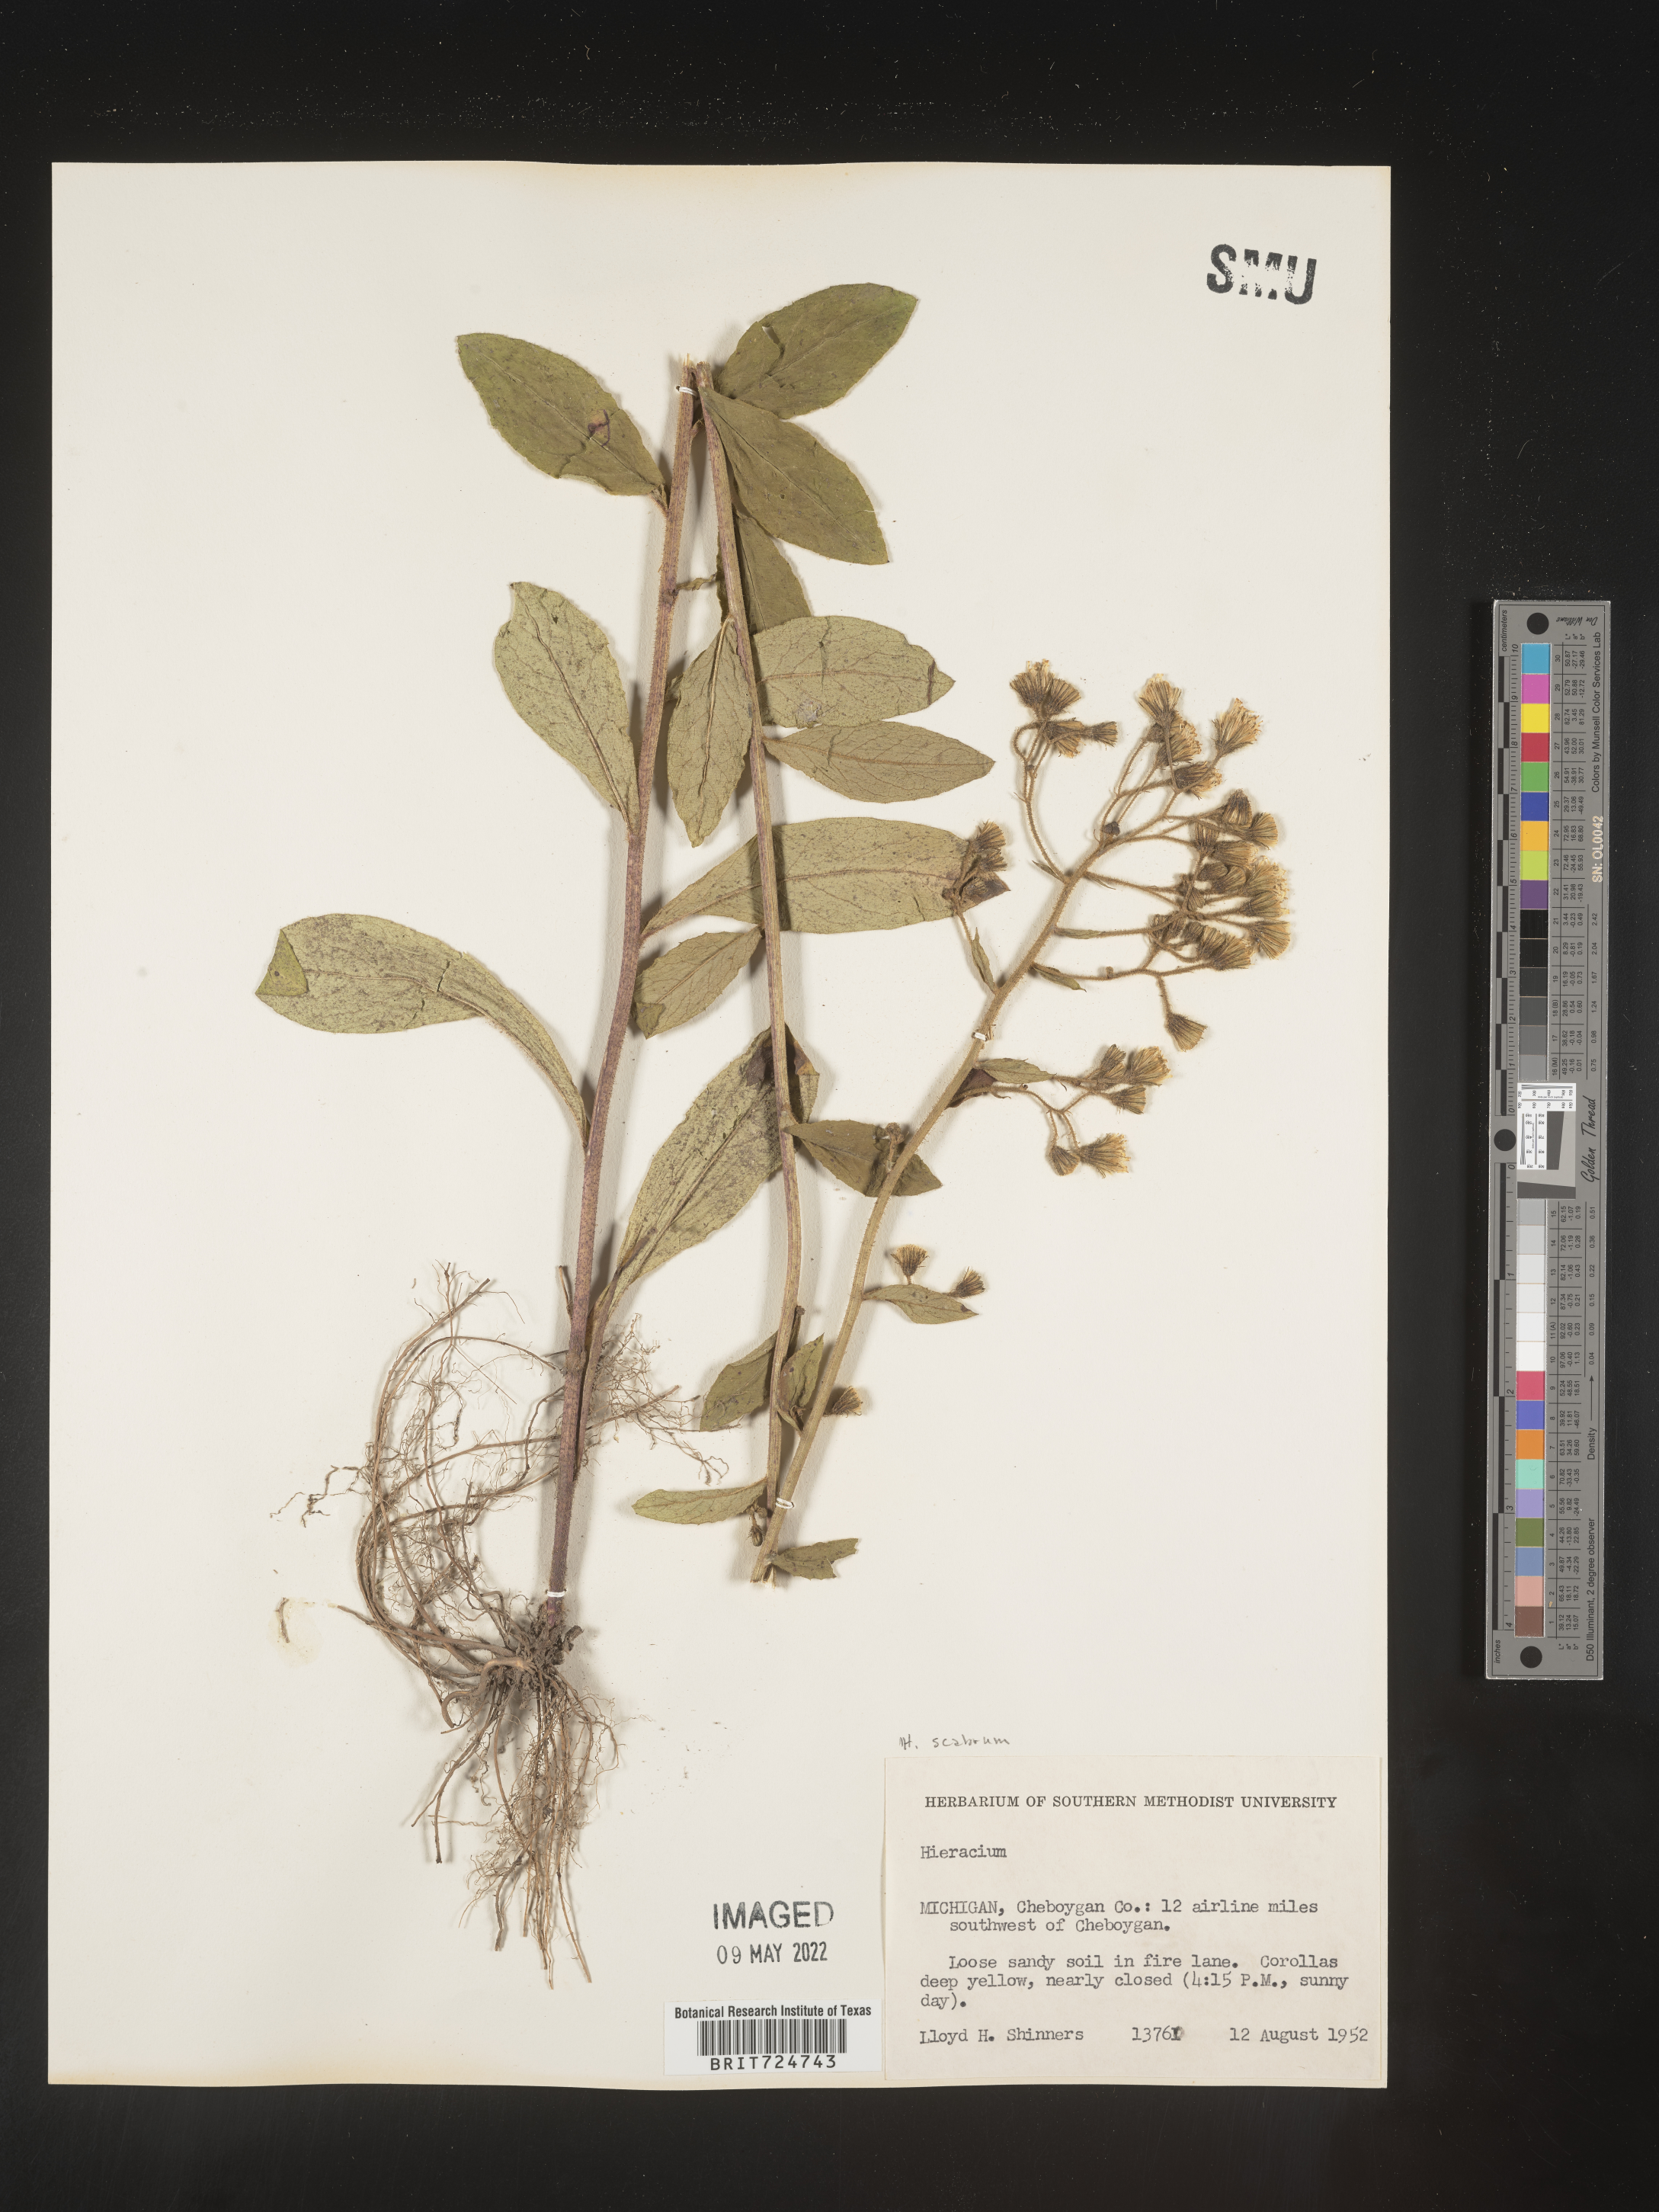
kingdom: Plantae
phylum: Tracheophyta
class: Magnoliopsida
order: Asterales
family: Asteraceae
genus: Hieracium
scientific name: Hieracium scabrum
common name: Rough hawkweed
